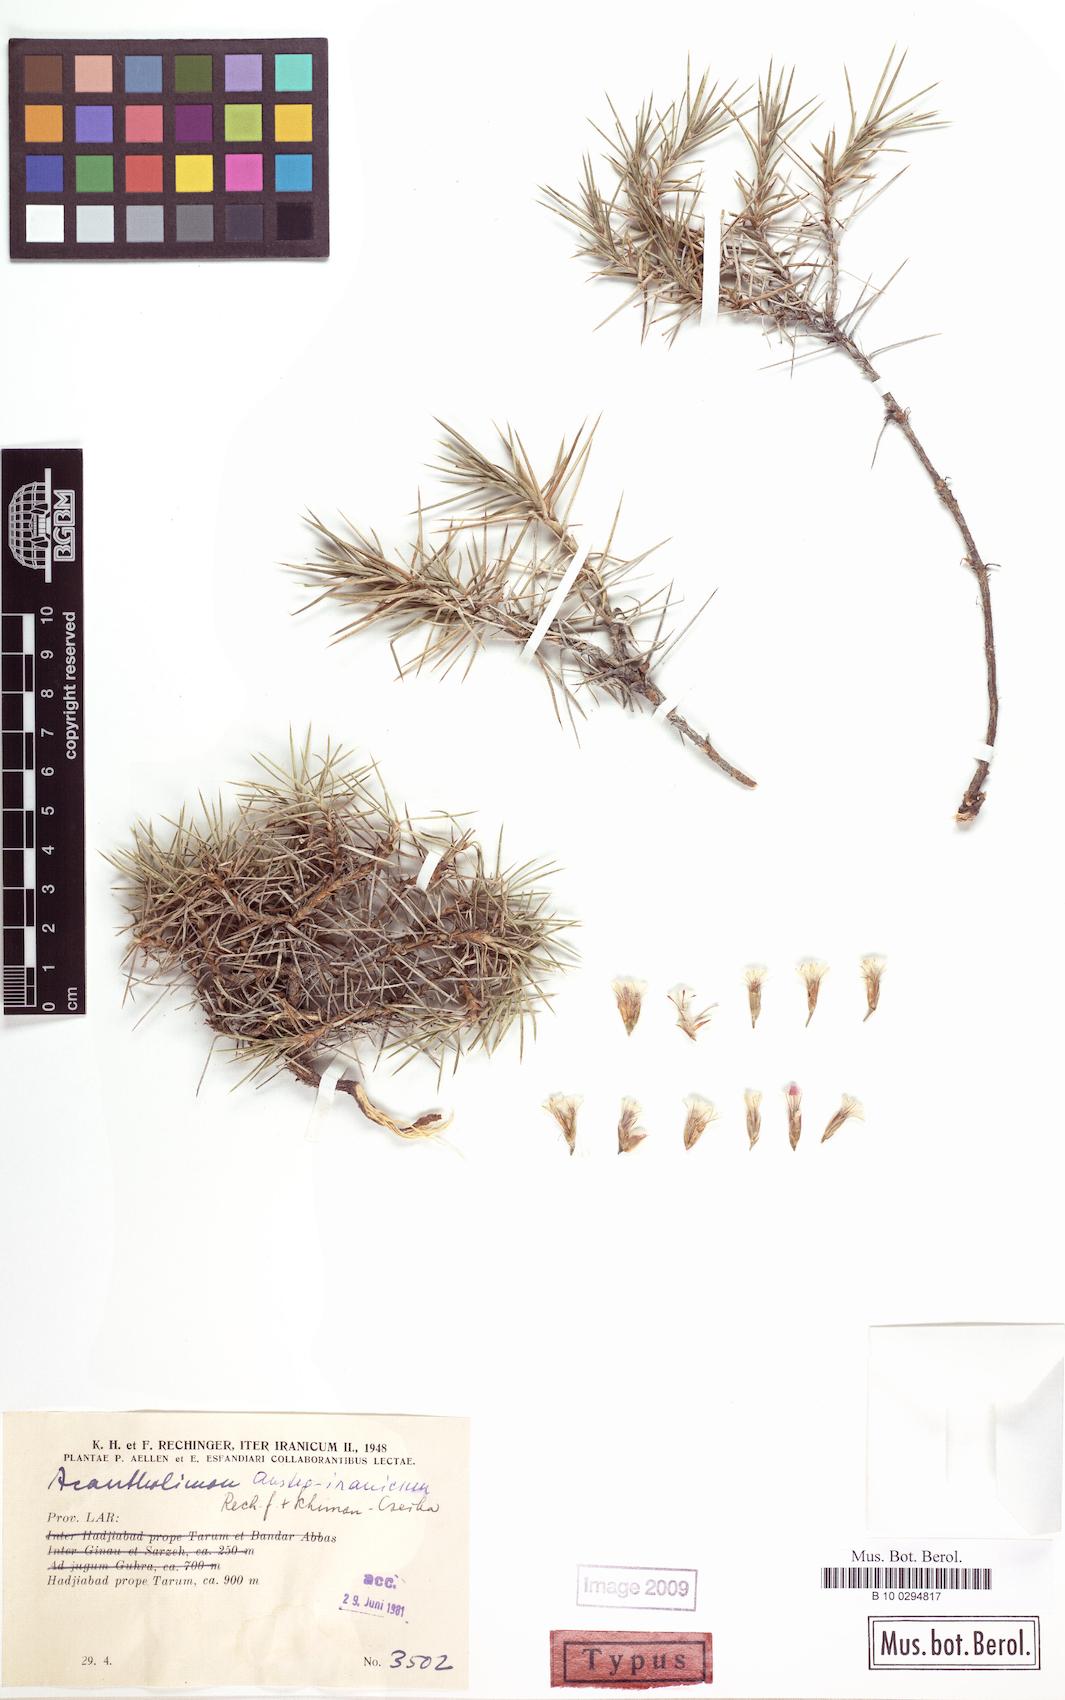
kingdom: Plantae
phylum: Tracheophyta
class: Magnoliopsida
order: Caryophyllales
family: Plumbaginaceae
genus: Acantholimon
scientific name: Acantholimon austroiranicum
